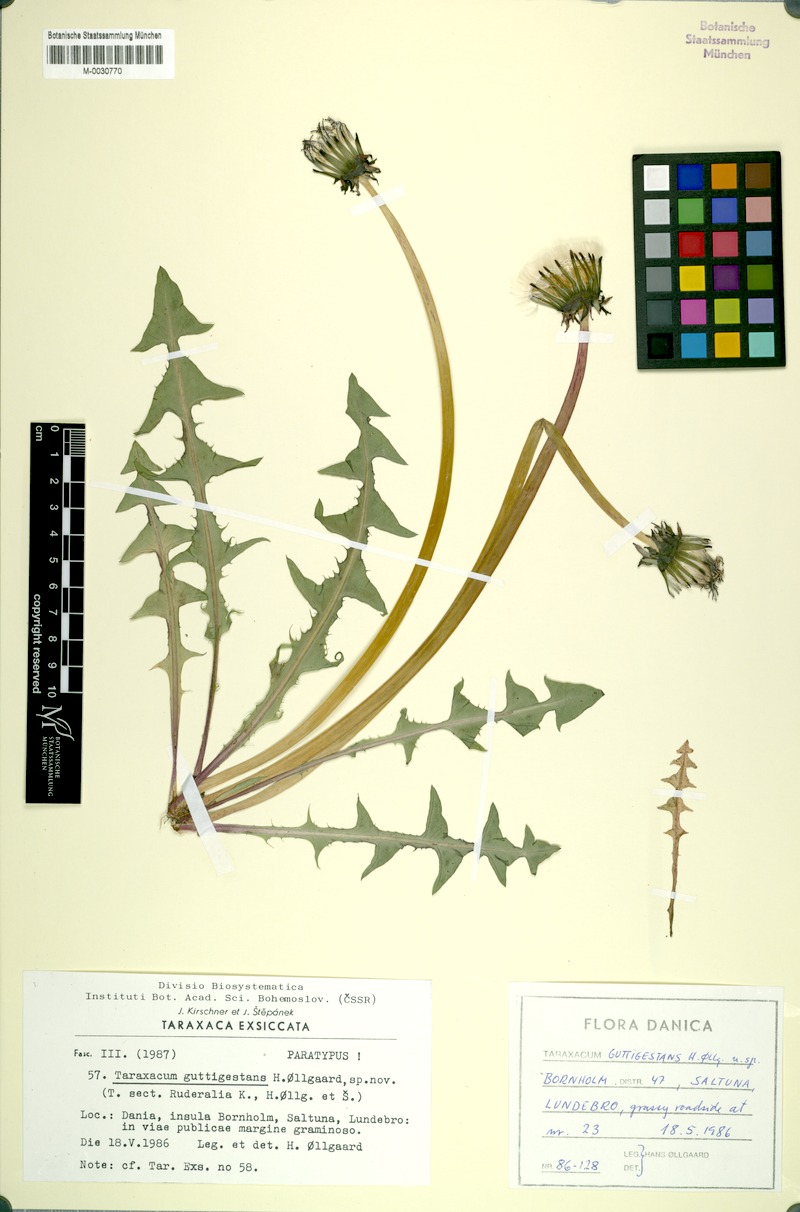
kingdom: Plantae
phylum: Tracheophyta
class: Magnoliopsida
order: Asterales
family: Asteraceae
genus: Taraxacum
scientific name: Taraxacum guttigestans
